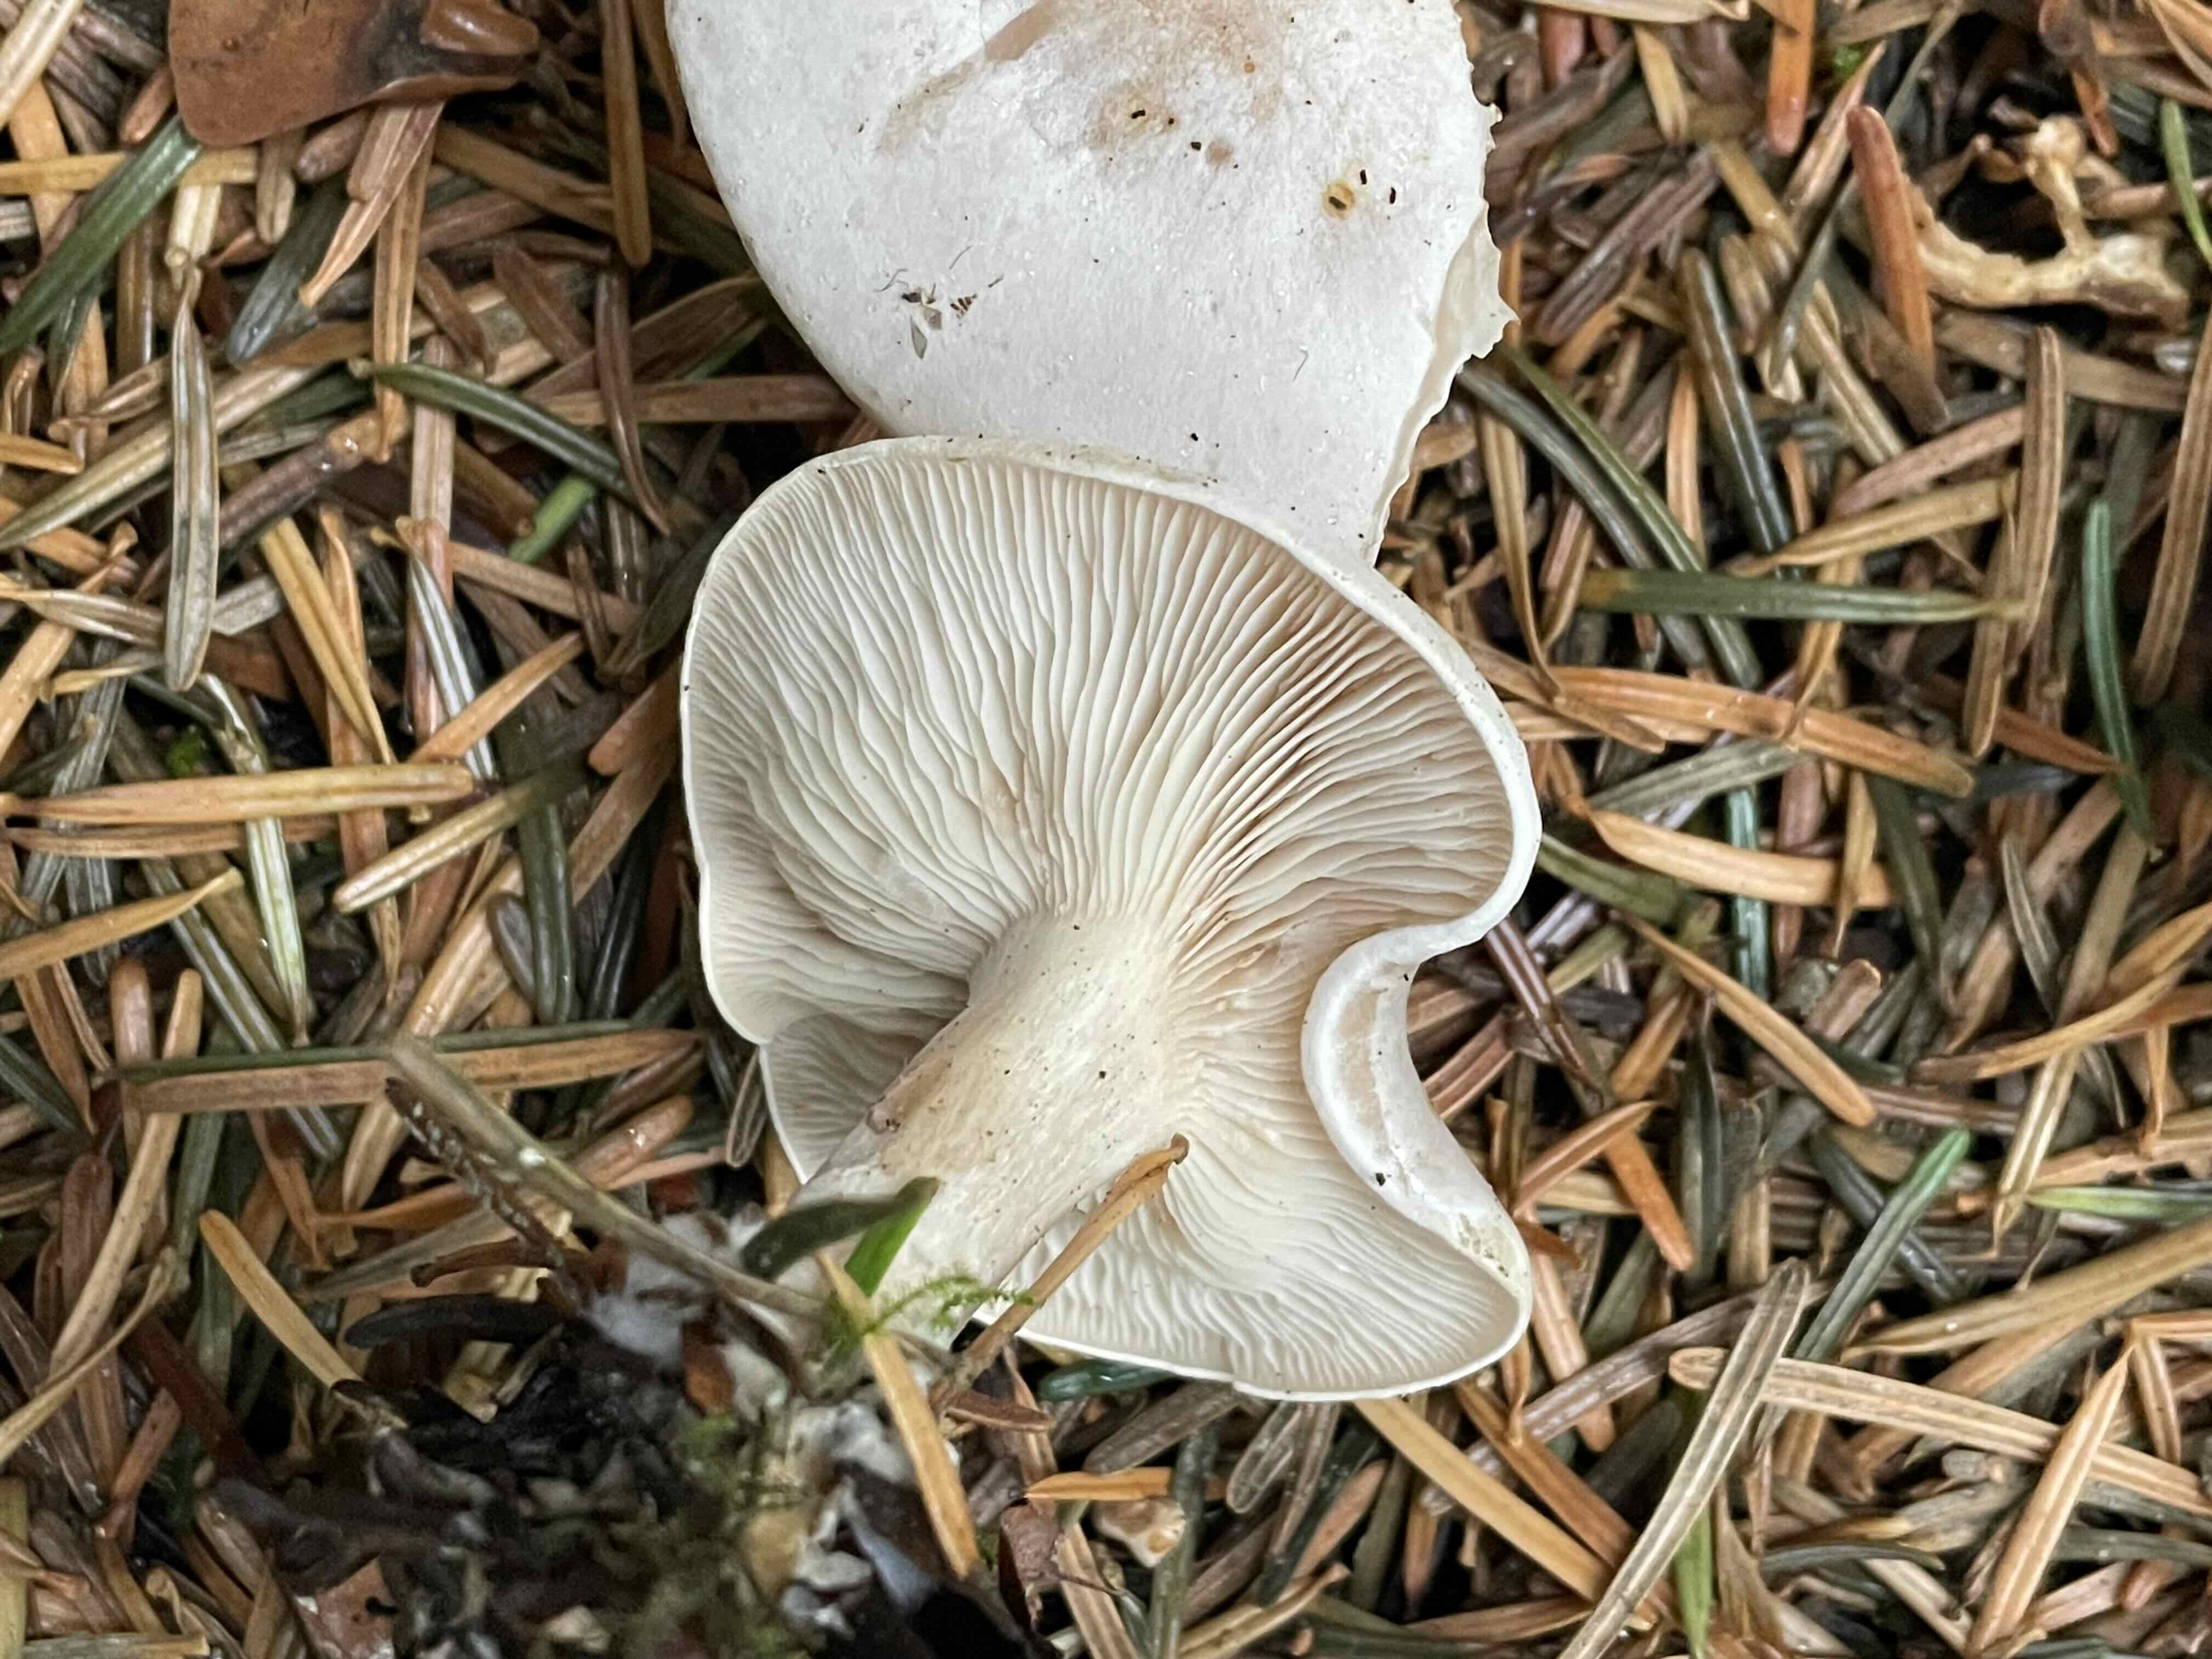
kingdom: Fungi
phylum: Basidiomycota
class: Agaricomycetes
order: Agaricales
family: Tricholomataceae
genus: Clitocybe
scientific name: Clitocybe
